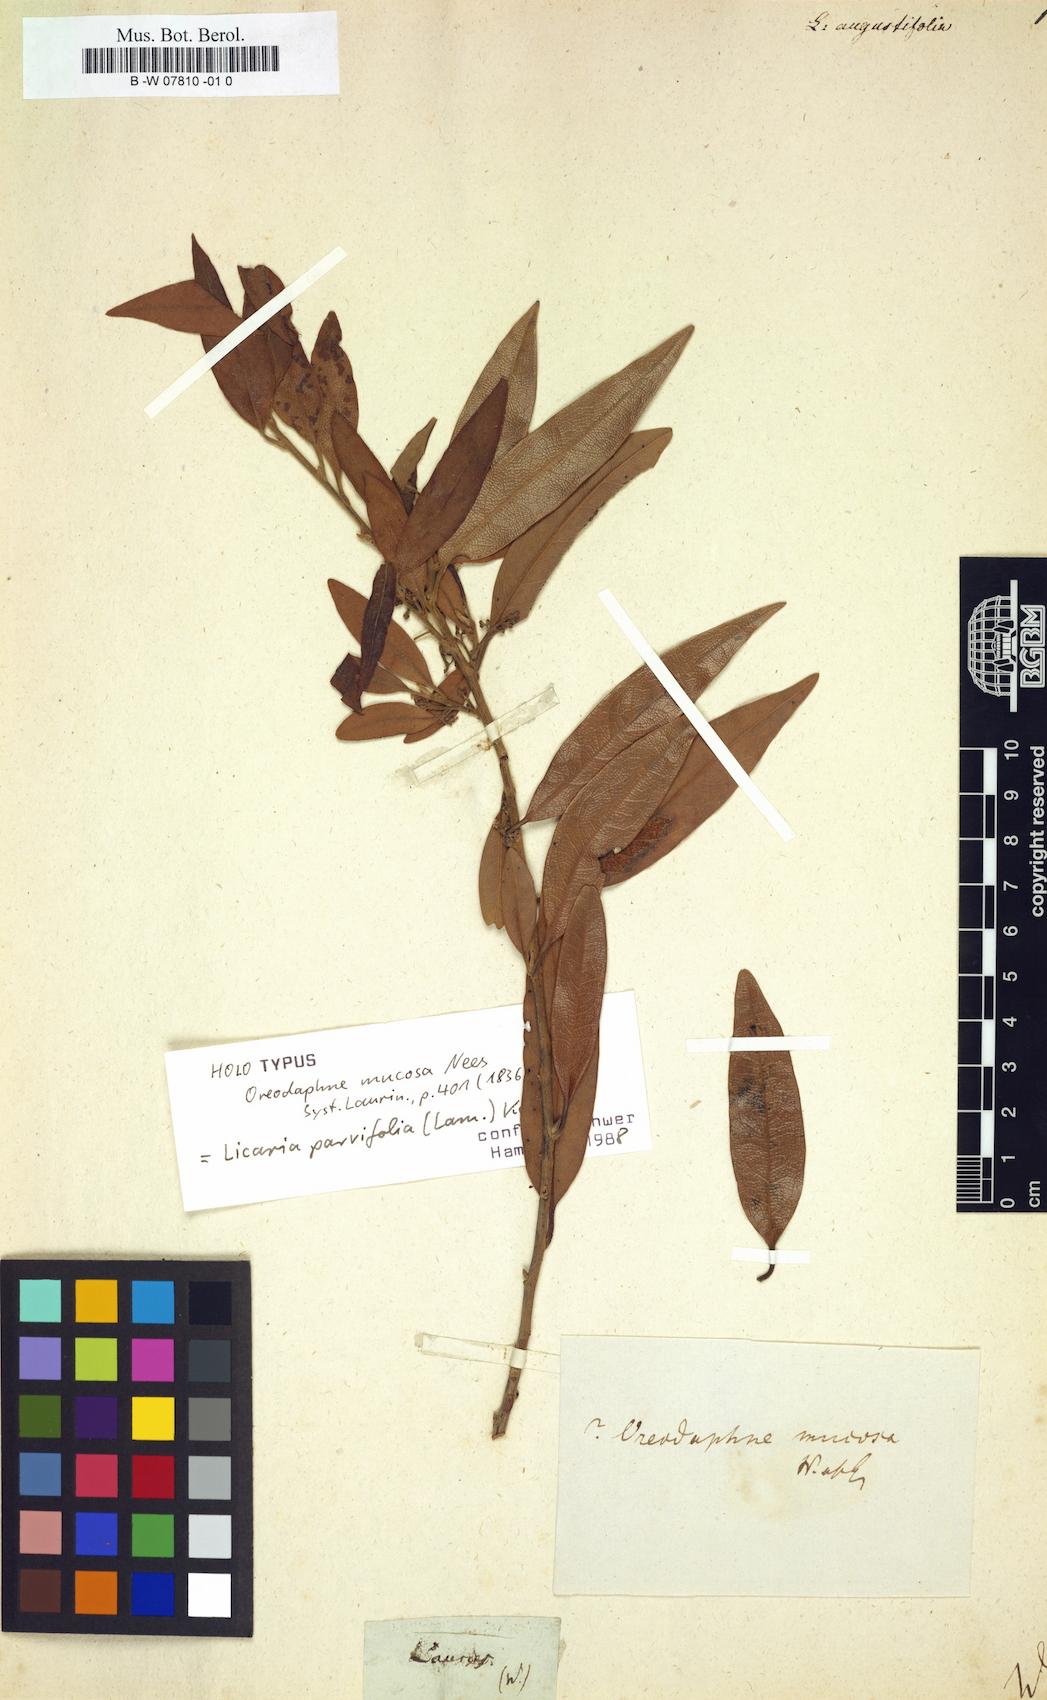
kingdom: Plantae
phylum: Tracheophyta
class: Magnoliopsida
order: Laurales
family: Lauraceae
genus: Licaria
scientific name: Licaria parvifolia
